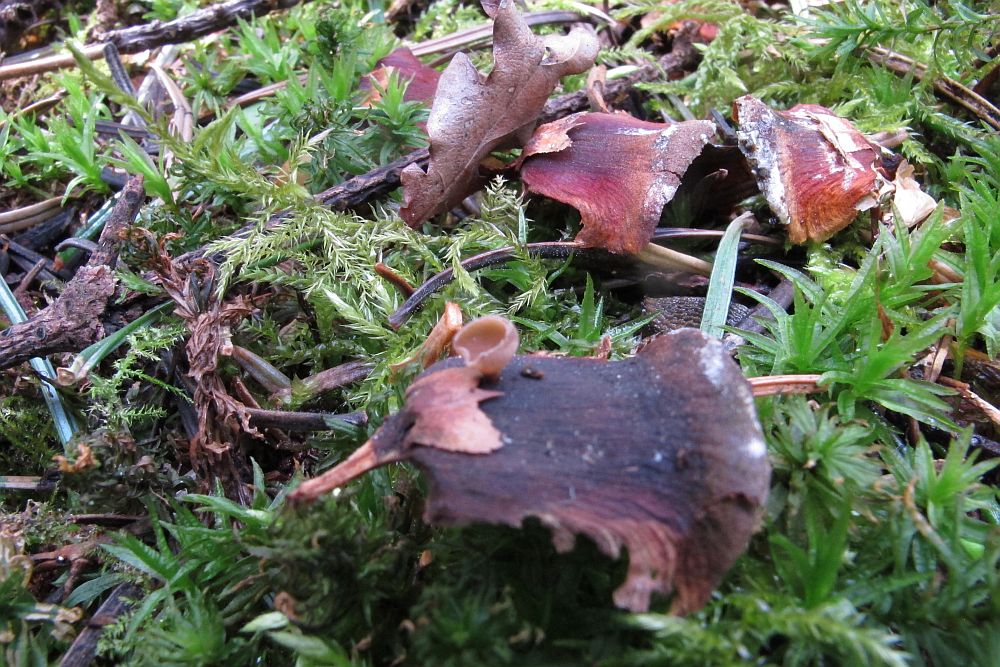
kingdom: Fungi
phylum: Ascomycota
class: Leotiomycetes
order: Helotiales
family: Sclerotiniaceae
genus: Ciboria
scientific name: Ciboria rufofusca
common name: kogleskæl-knoldskive
